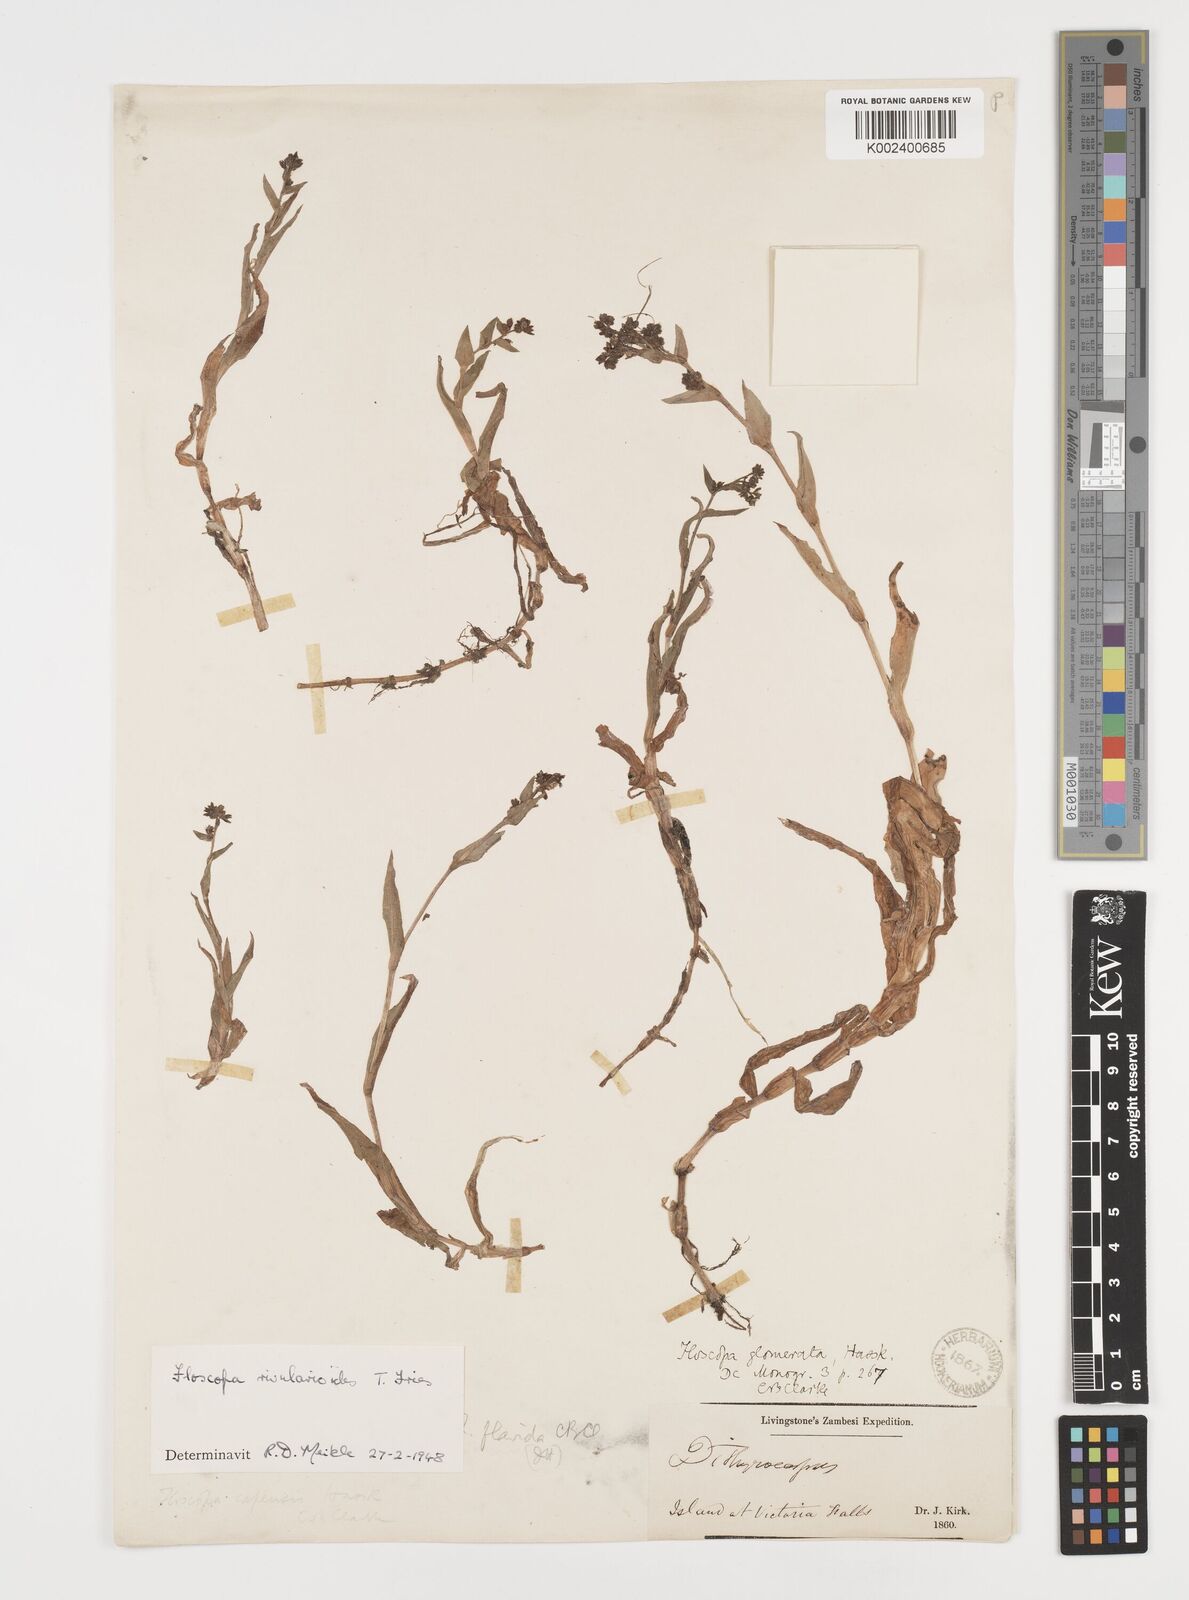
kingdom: Plantae
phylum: Tracheophyta
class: Liliopsida
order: Commelinales
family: Commelinaceae
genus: Floscopa
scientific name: Floscopa rivularioides
